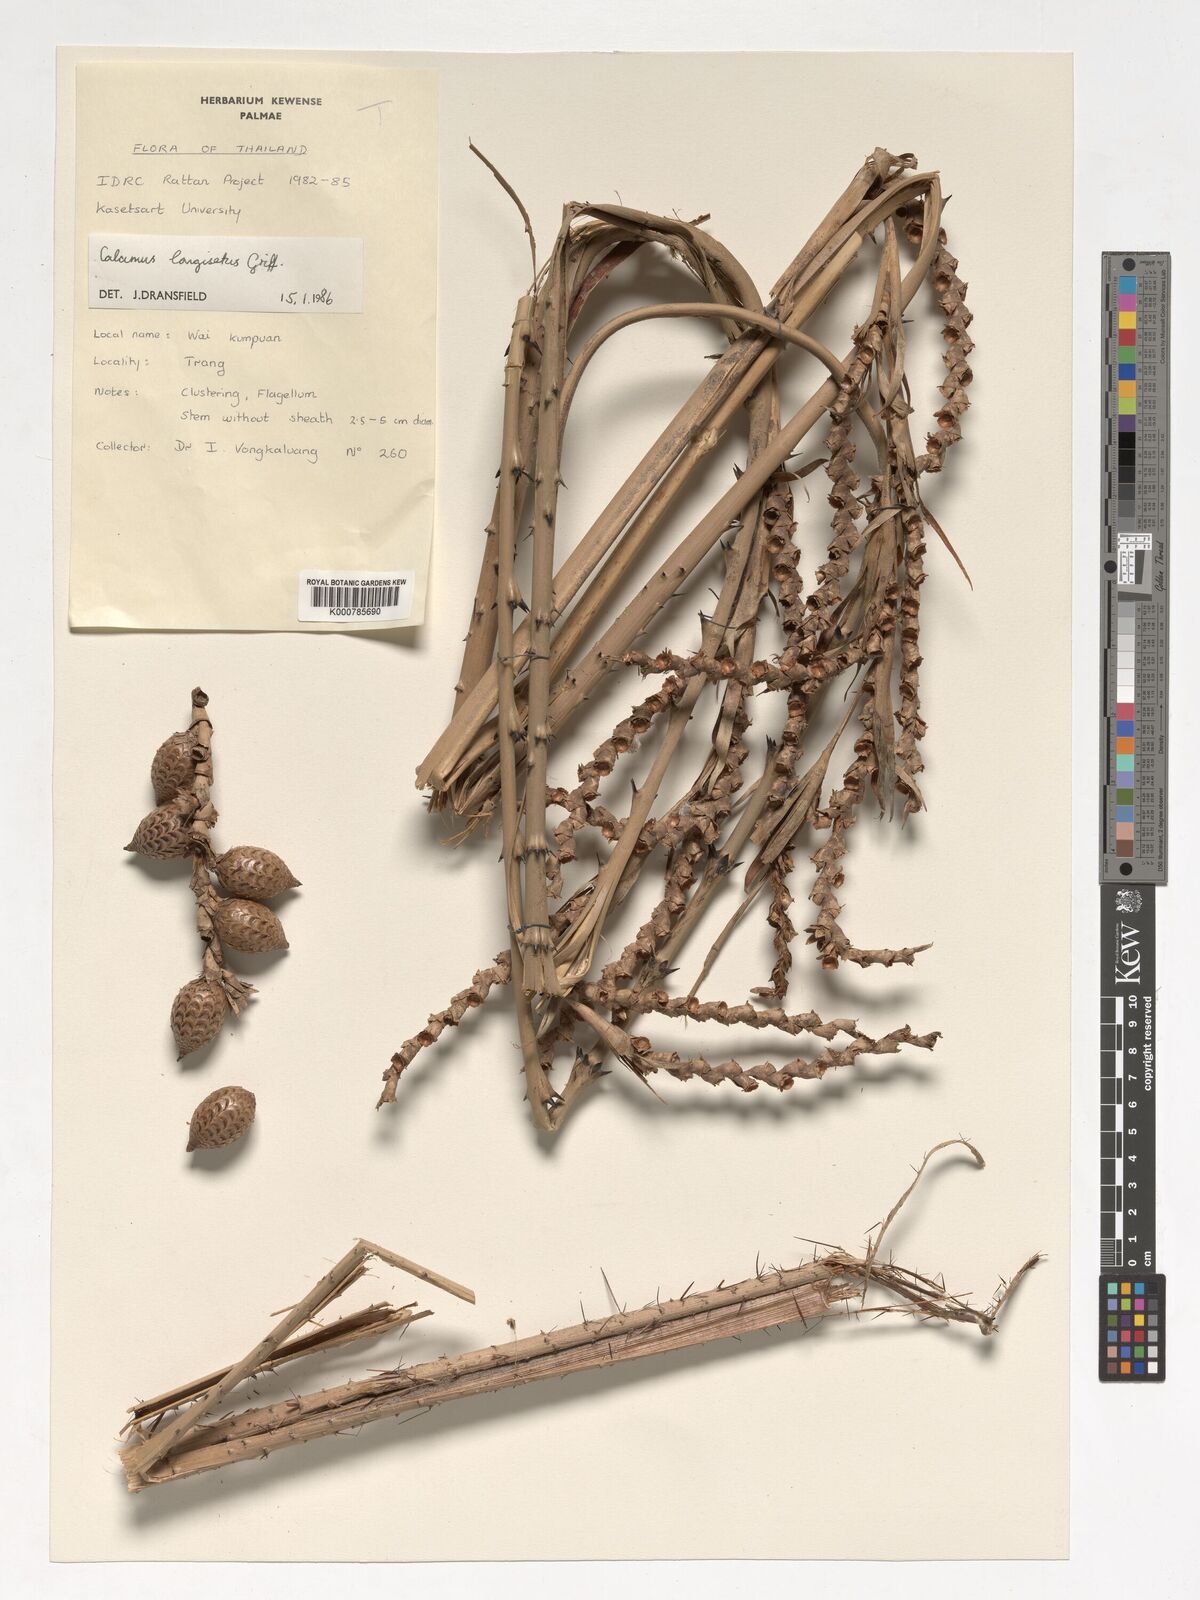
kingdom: Plantae
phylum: Tracheophyta
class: Liliopsida
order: Arecales
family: Arecaceae
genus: Calamus
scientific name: Calamus longisetus
